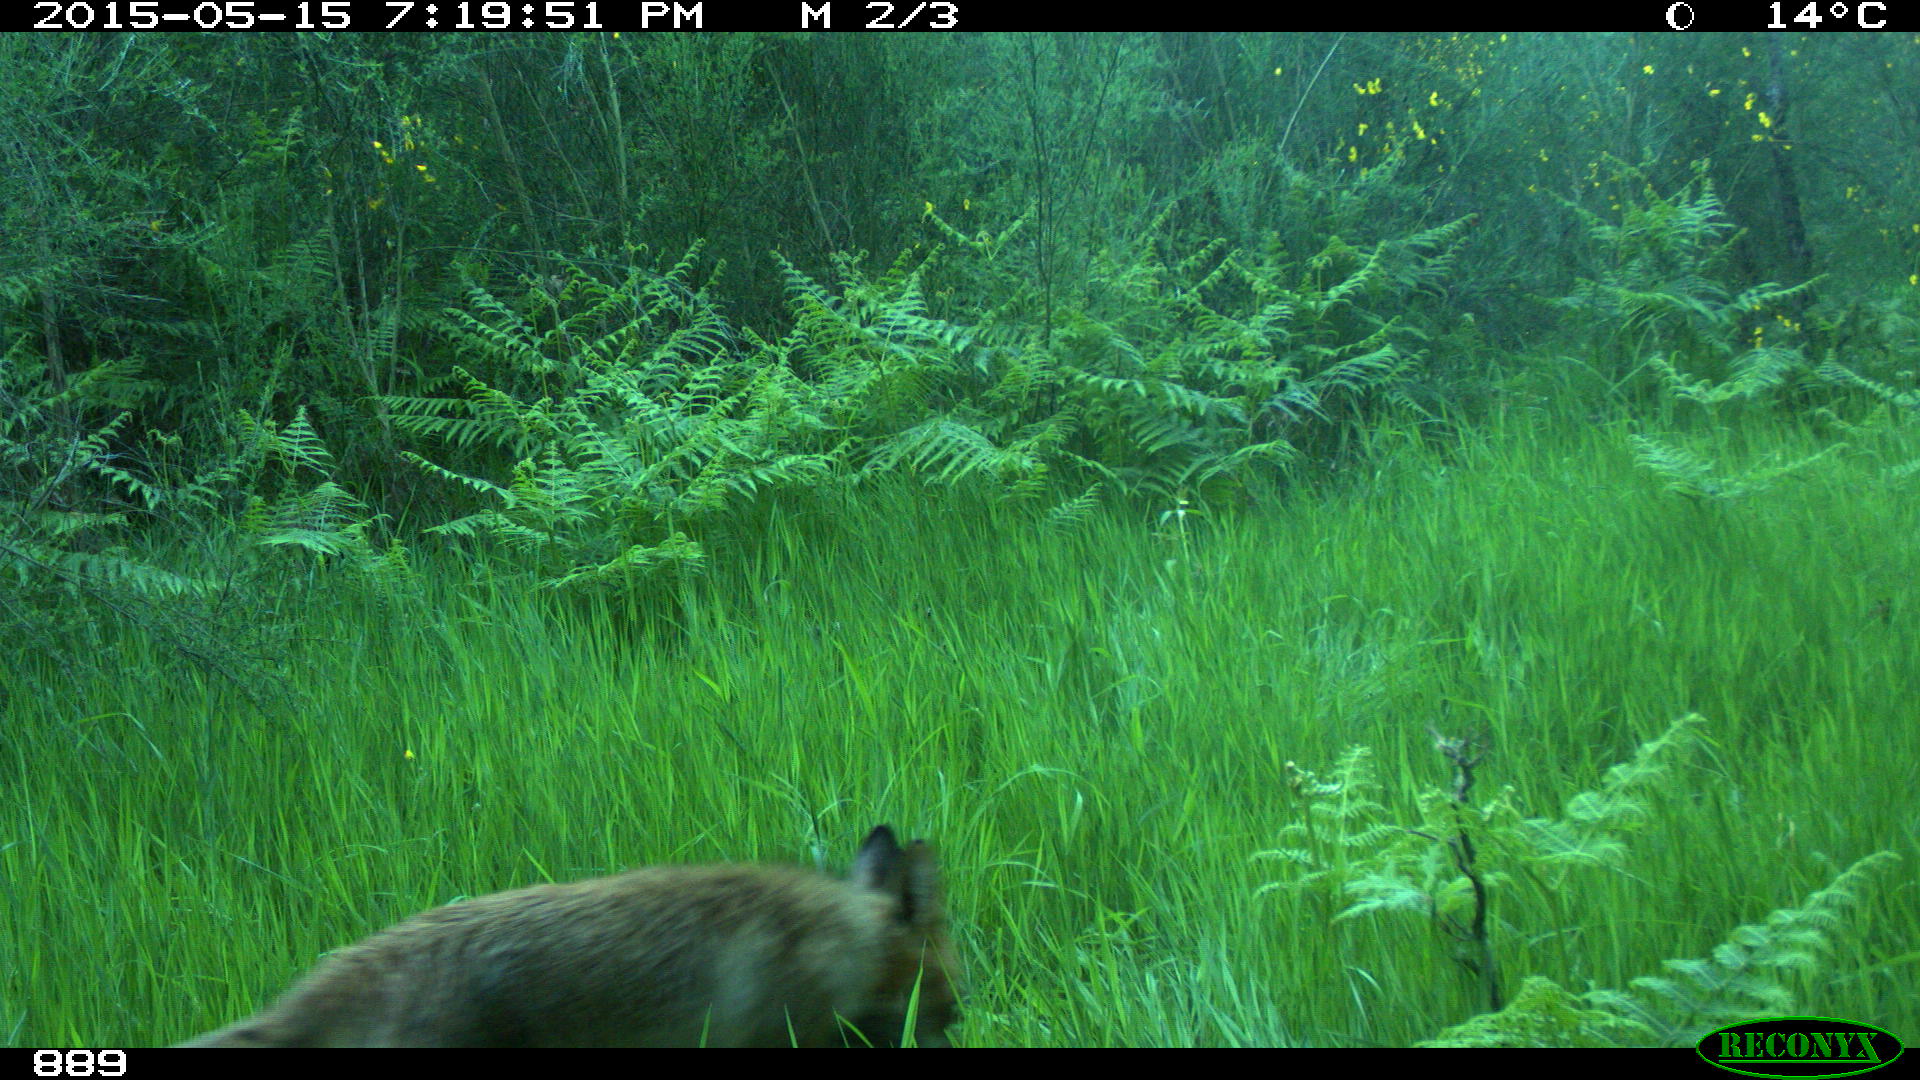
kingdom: Animalia
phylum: Chordata
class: Mammalia
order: Carnivora
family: Canidae
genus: Vulpes
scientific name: Vulpes vulpes
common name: Red fox
